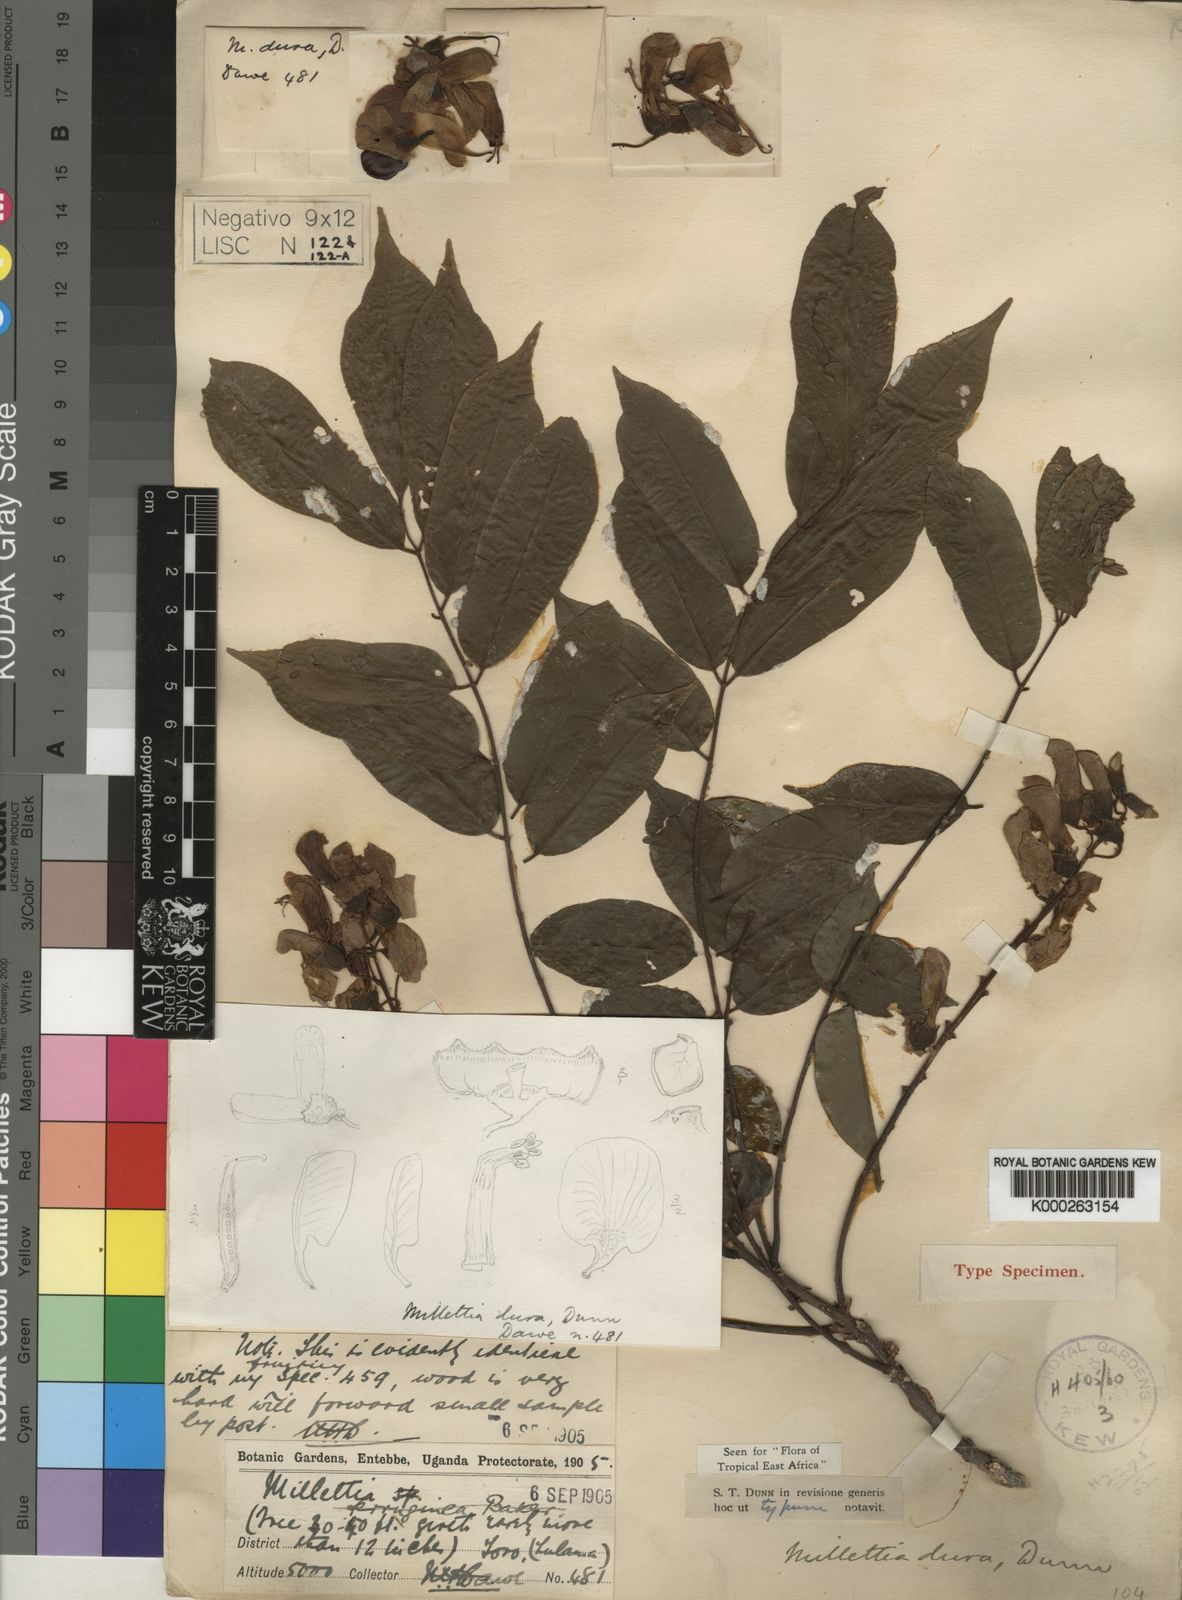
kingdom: Plantae
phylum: Tracheophyta
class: Magnoliopsida
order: Fabales
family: Fabaceae
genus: Millettia
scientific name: Millettia dura
